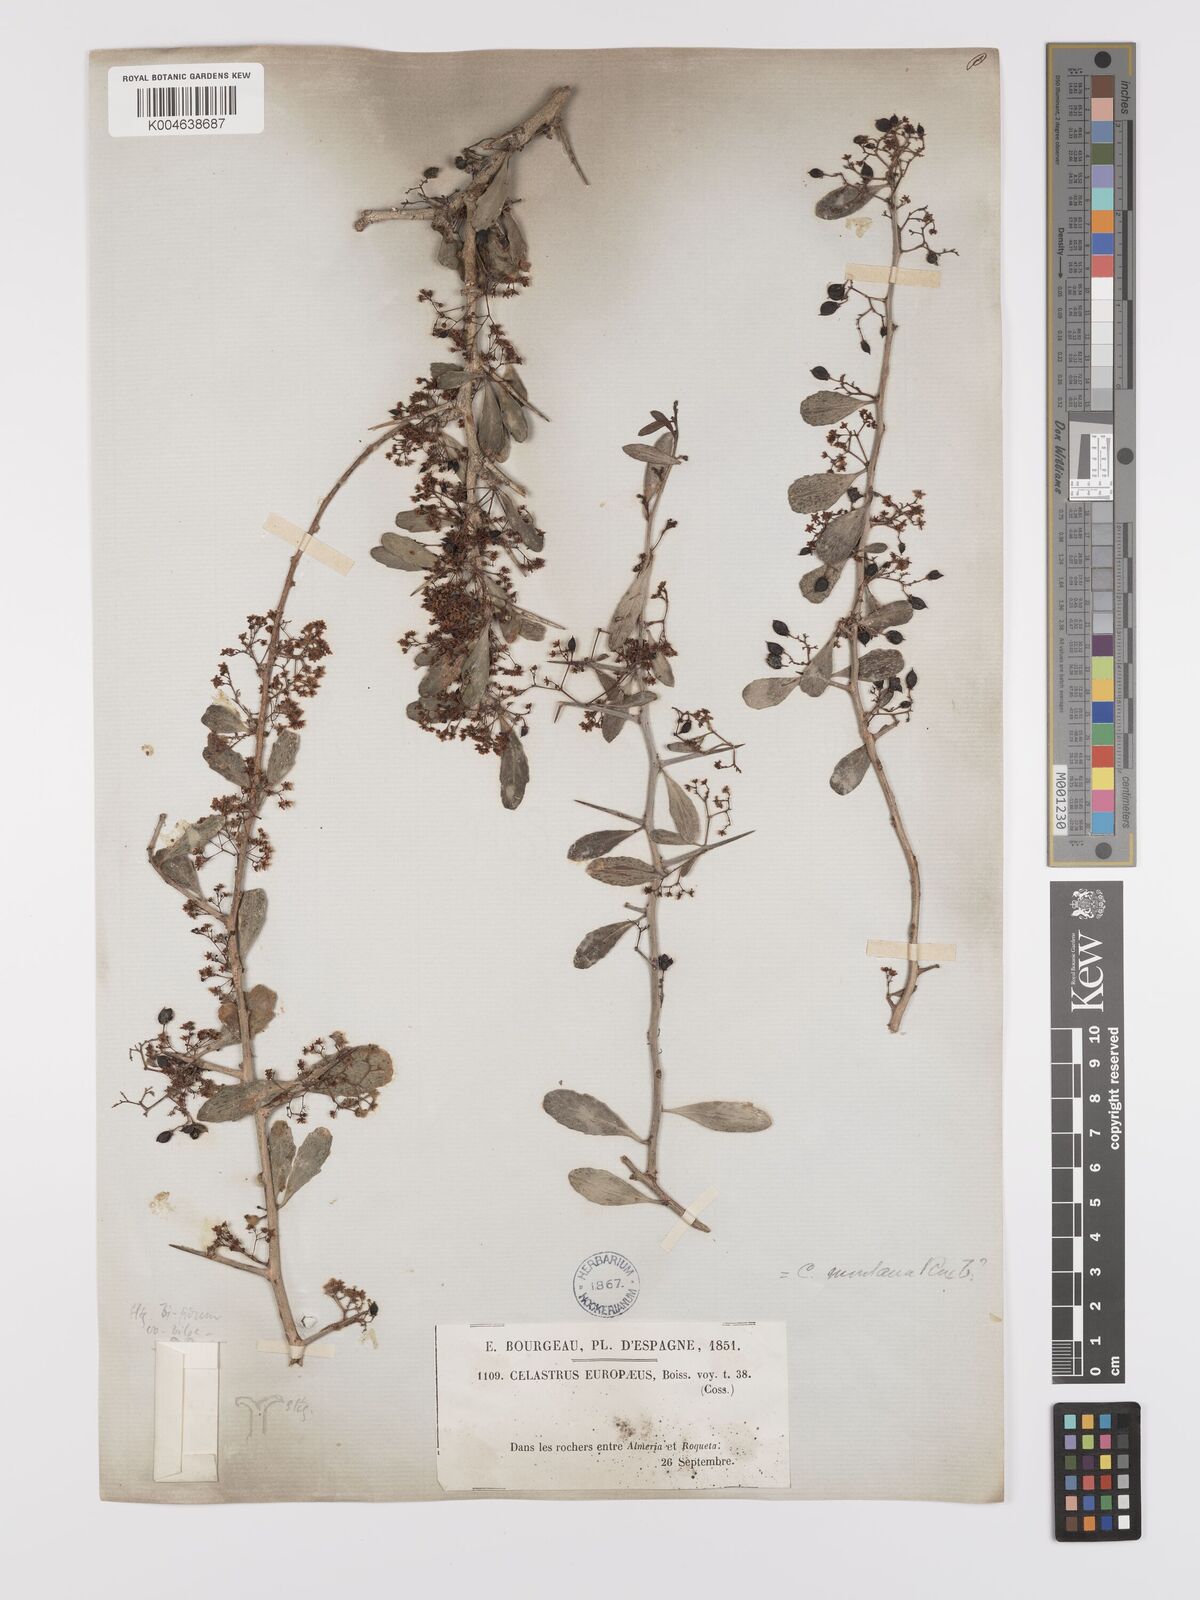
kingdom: Plantae
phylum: Tracheophyta
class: Magnoliopsida
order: Celastrales
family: Celastraceae
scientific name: Celastraceae
